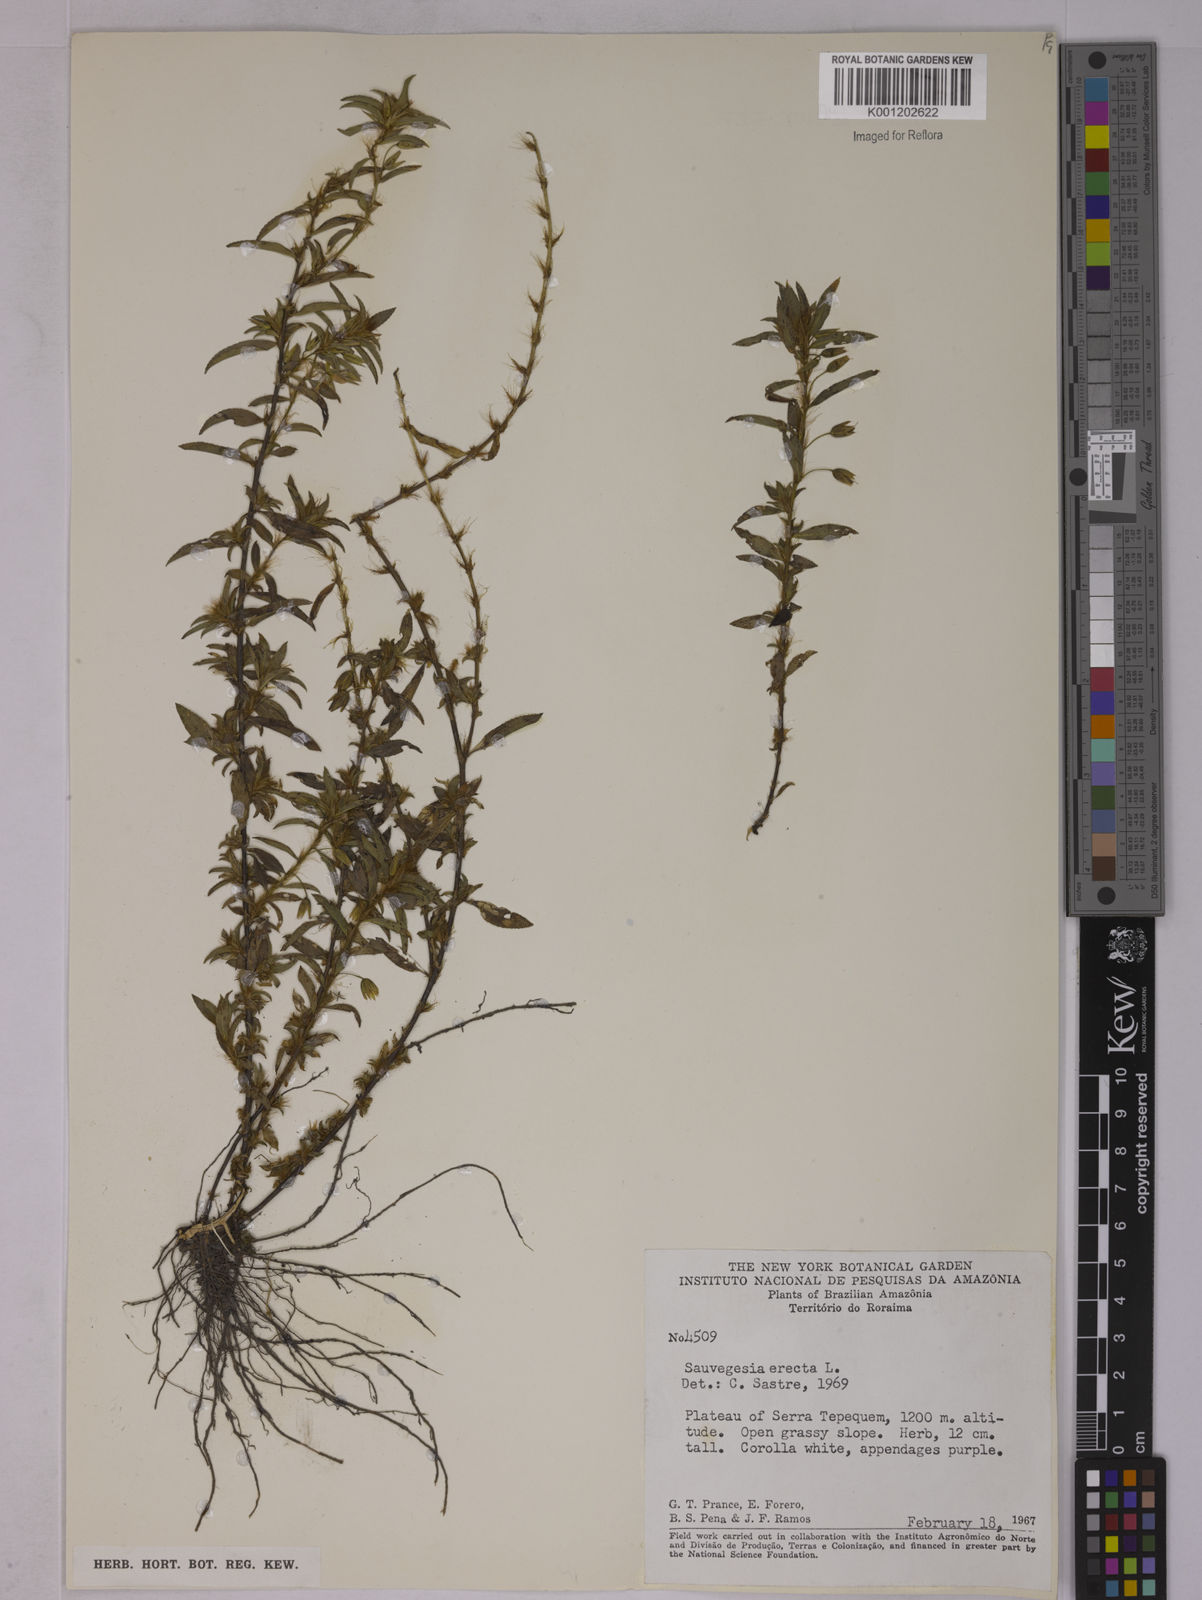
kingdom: Plantae
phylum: Tracheophyta
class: Magnoliopsida
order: Malpighiales
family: Ochnaceae
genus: Sauvagesia
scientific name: Sauvagesia erecta
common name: Creole tea
